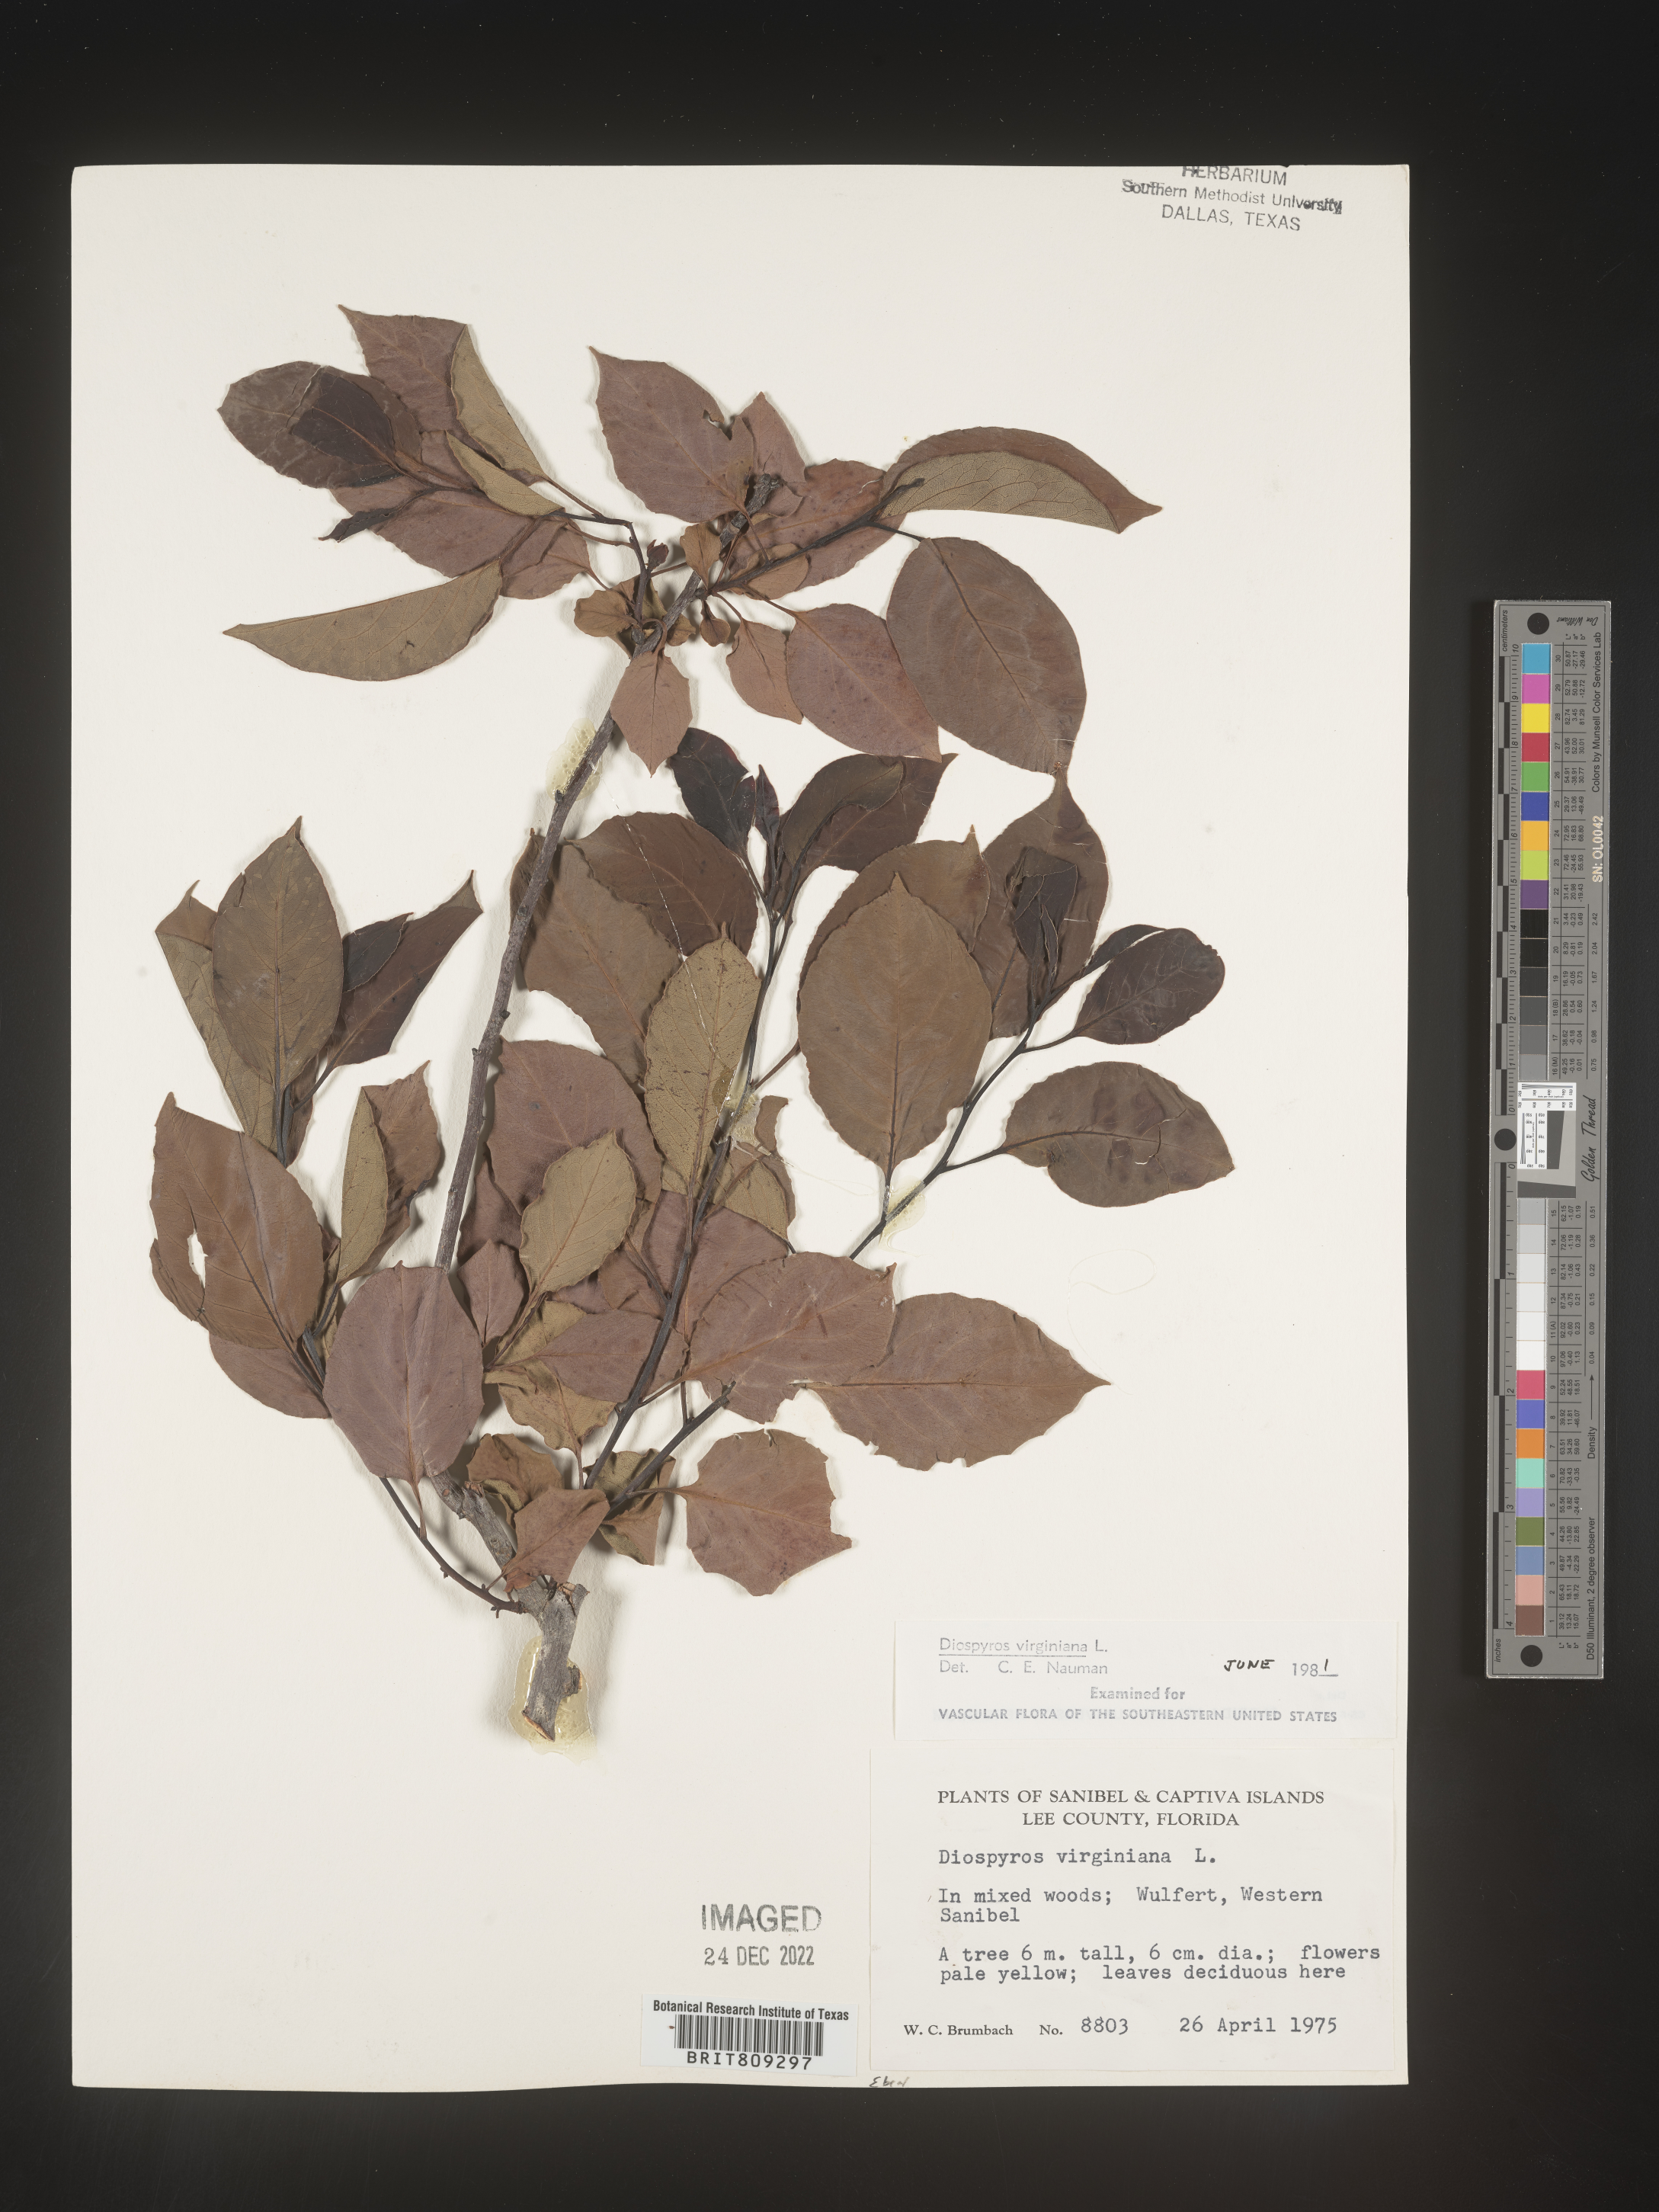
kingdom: Plantae
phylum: Tracheophyta
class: Magnoliopsida
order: Ericales
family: Ebenaceae
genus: Diospyros
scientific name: Diospyros virginiana
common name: Persimmon
